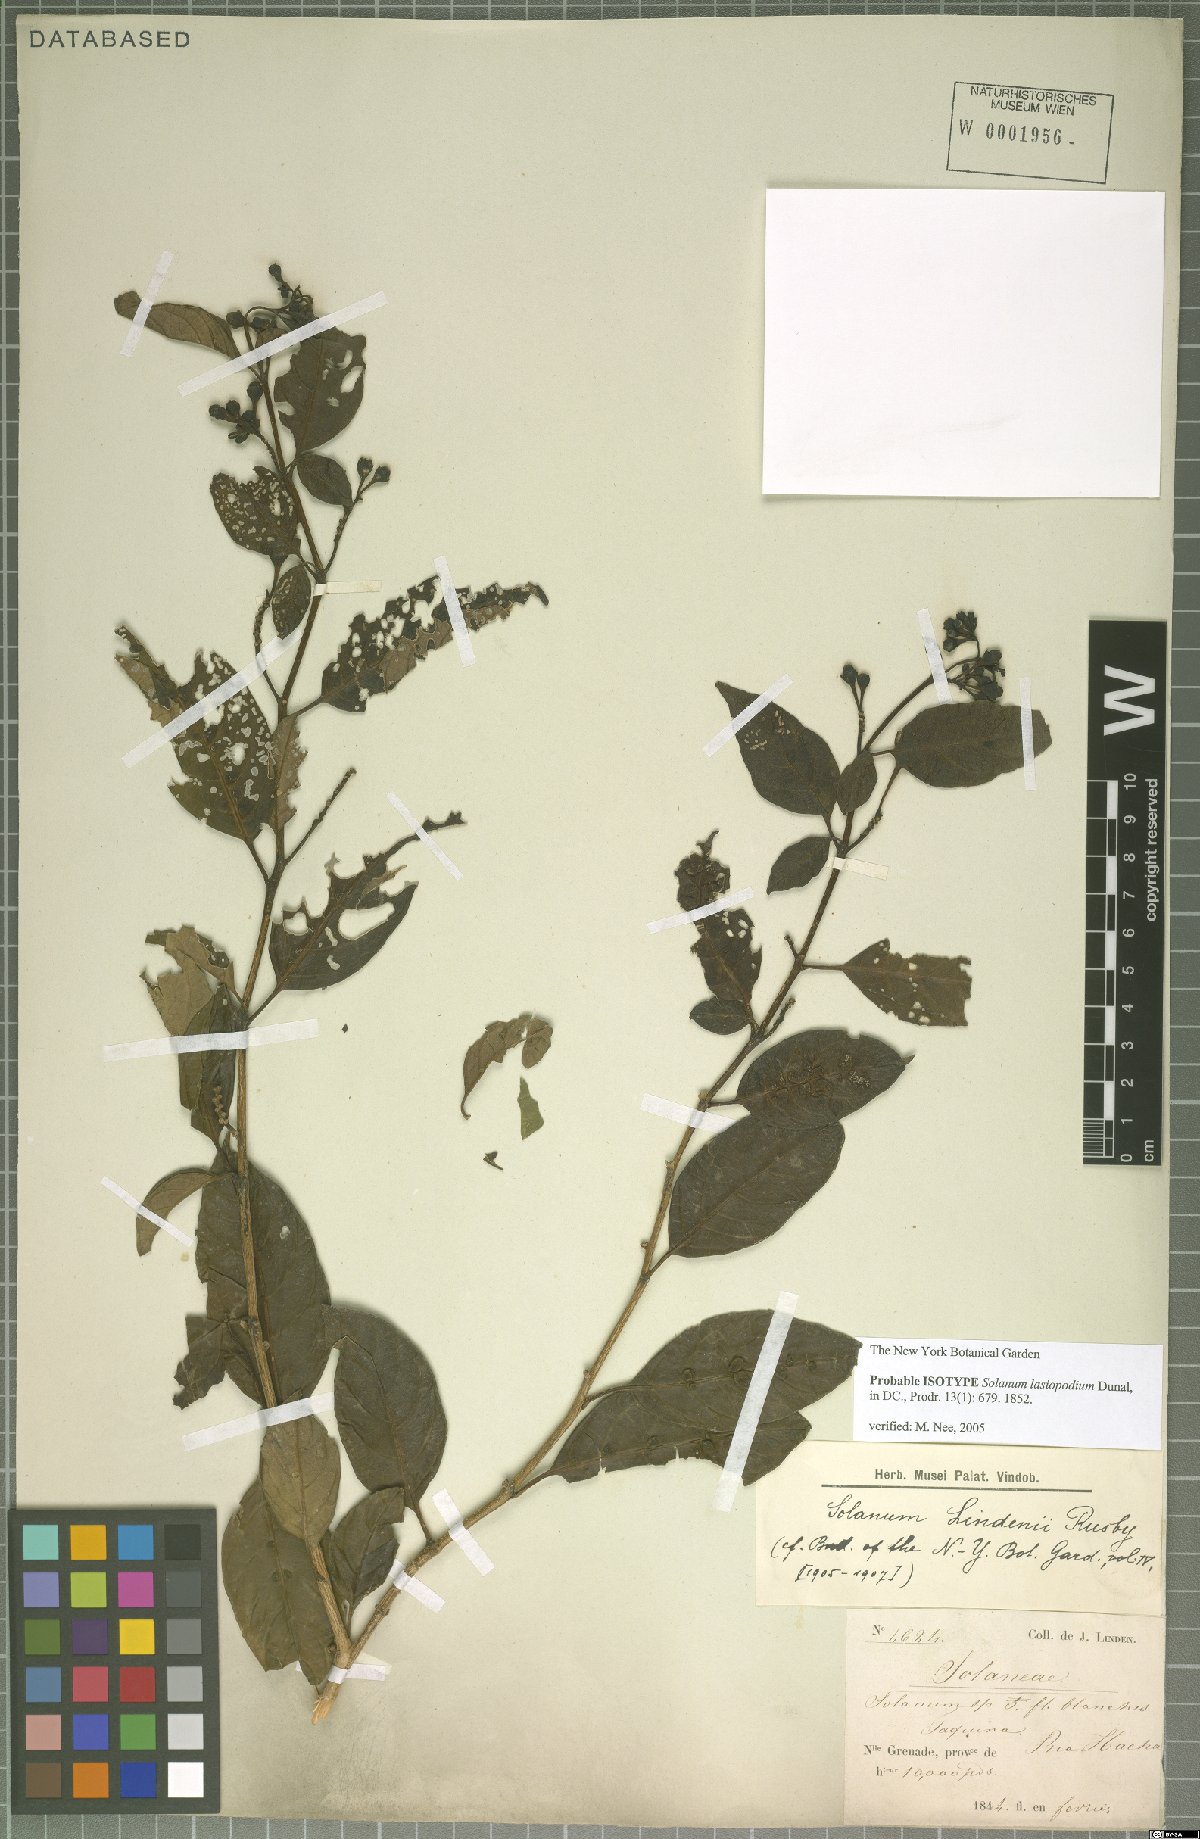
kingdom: Plantae
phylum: Tracheophyta
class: Magnoliopsida
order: Solanales
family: Solanaceae
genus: Solanum
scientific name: Solanum lasiopodium
